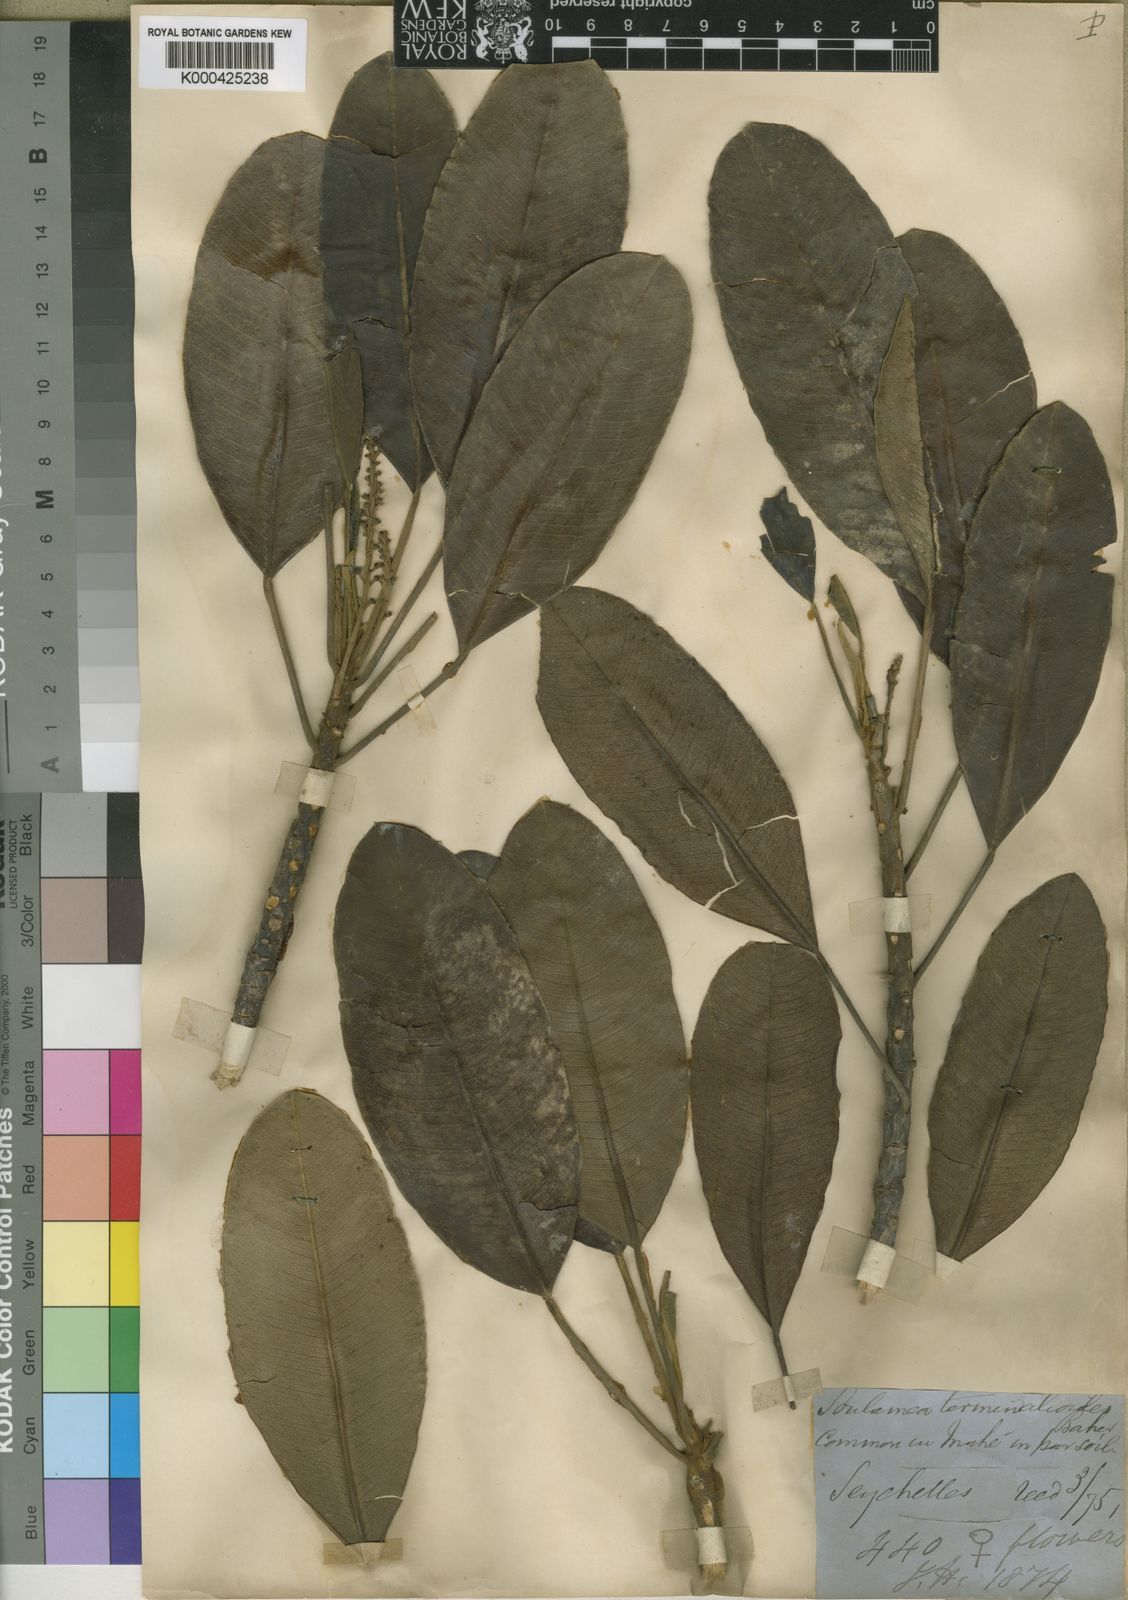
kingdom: Plantae
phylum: Tracheophyta
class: Magnoliopsida
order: Sapindales
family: Simaroubaceae
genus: Soulamea
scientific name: Soulamea
